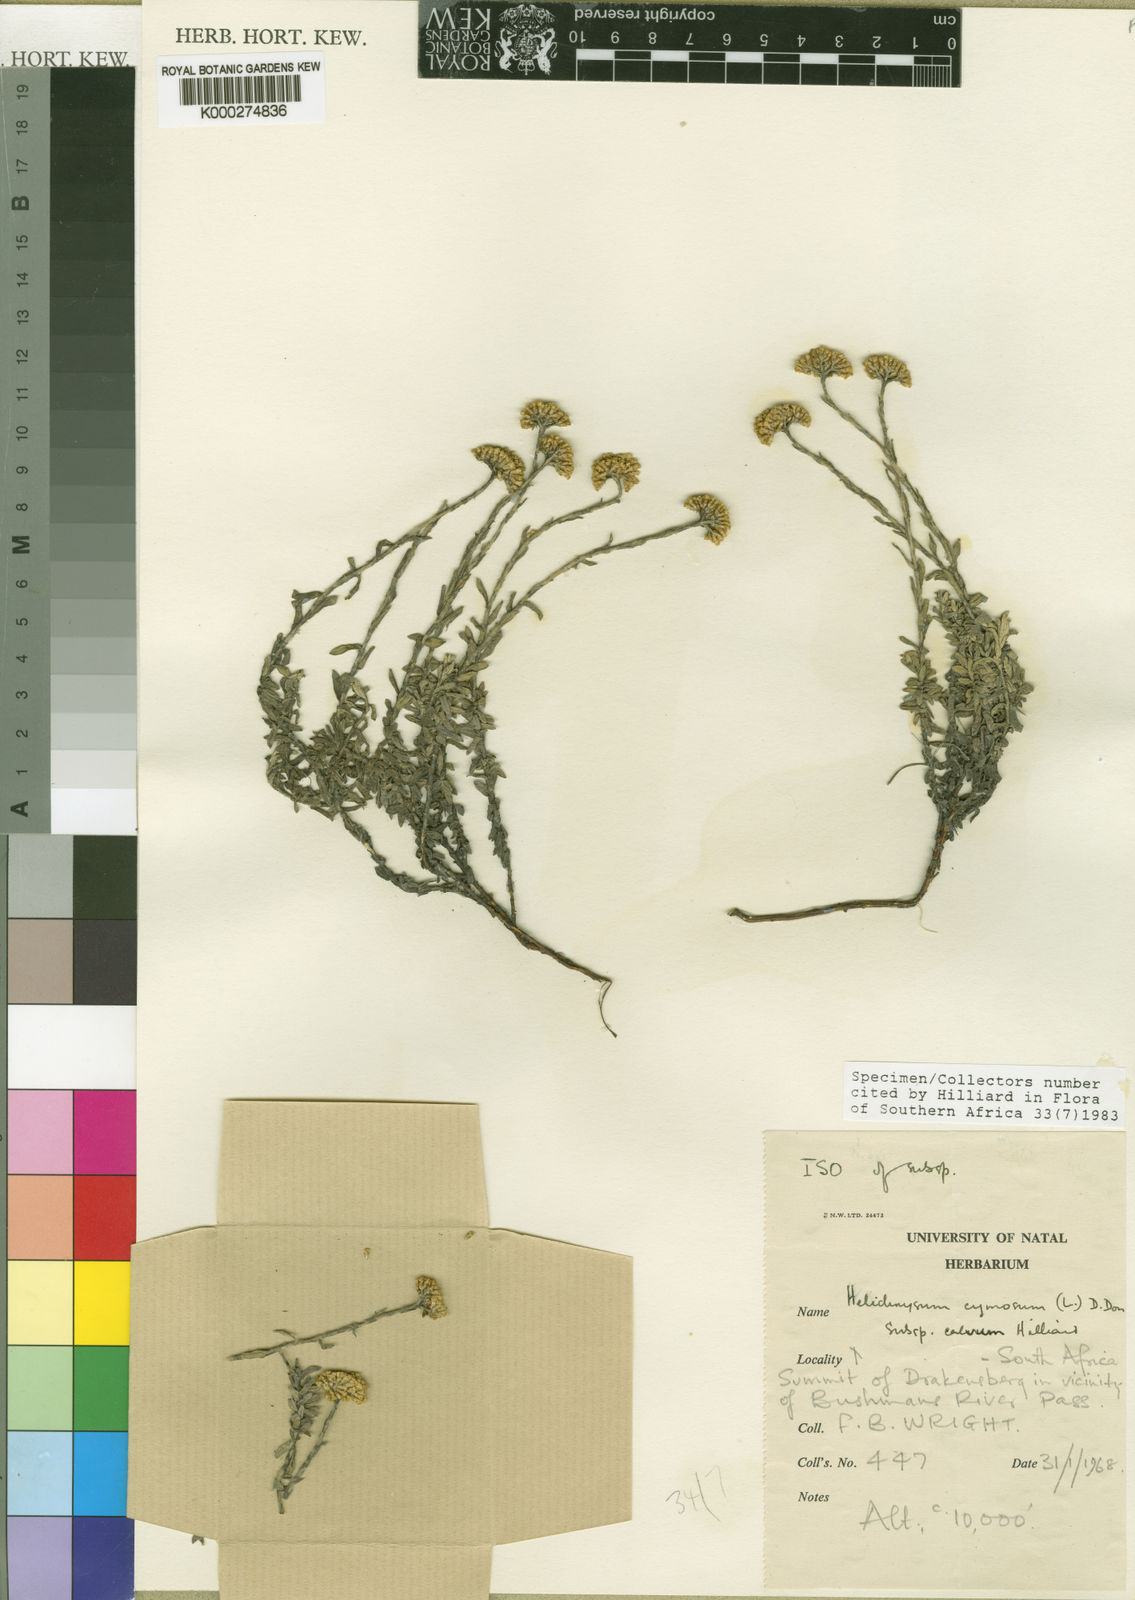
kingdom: Plantae
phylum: Tracheophyta
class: Magnoliopsida
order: Asterales
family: Asteraceae
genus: Helichrysum
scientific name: Helichrysum cymosum
